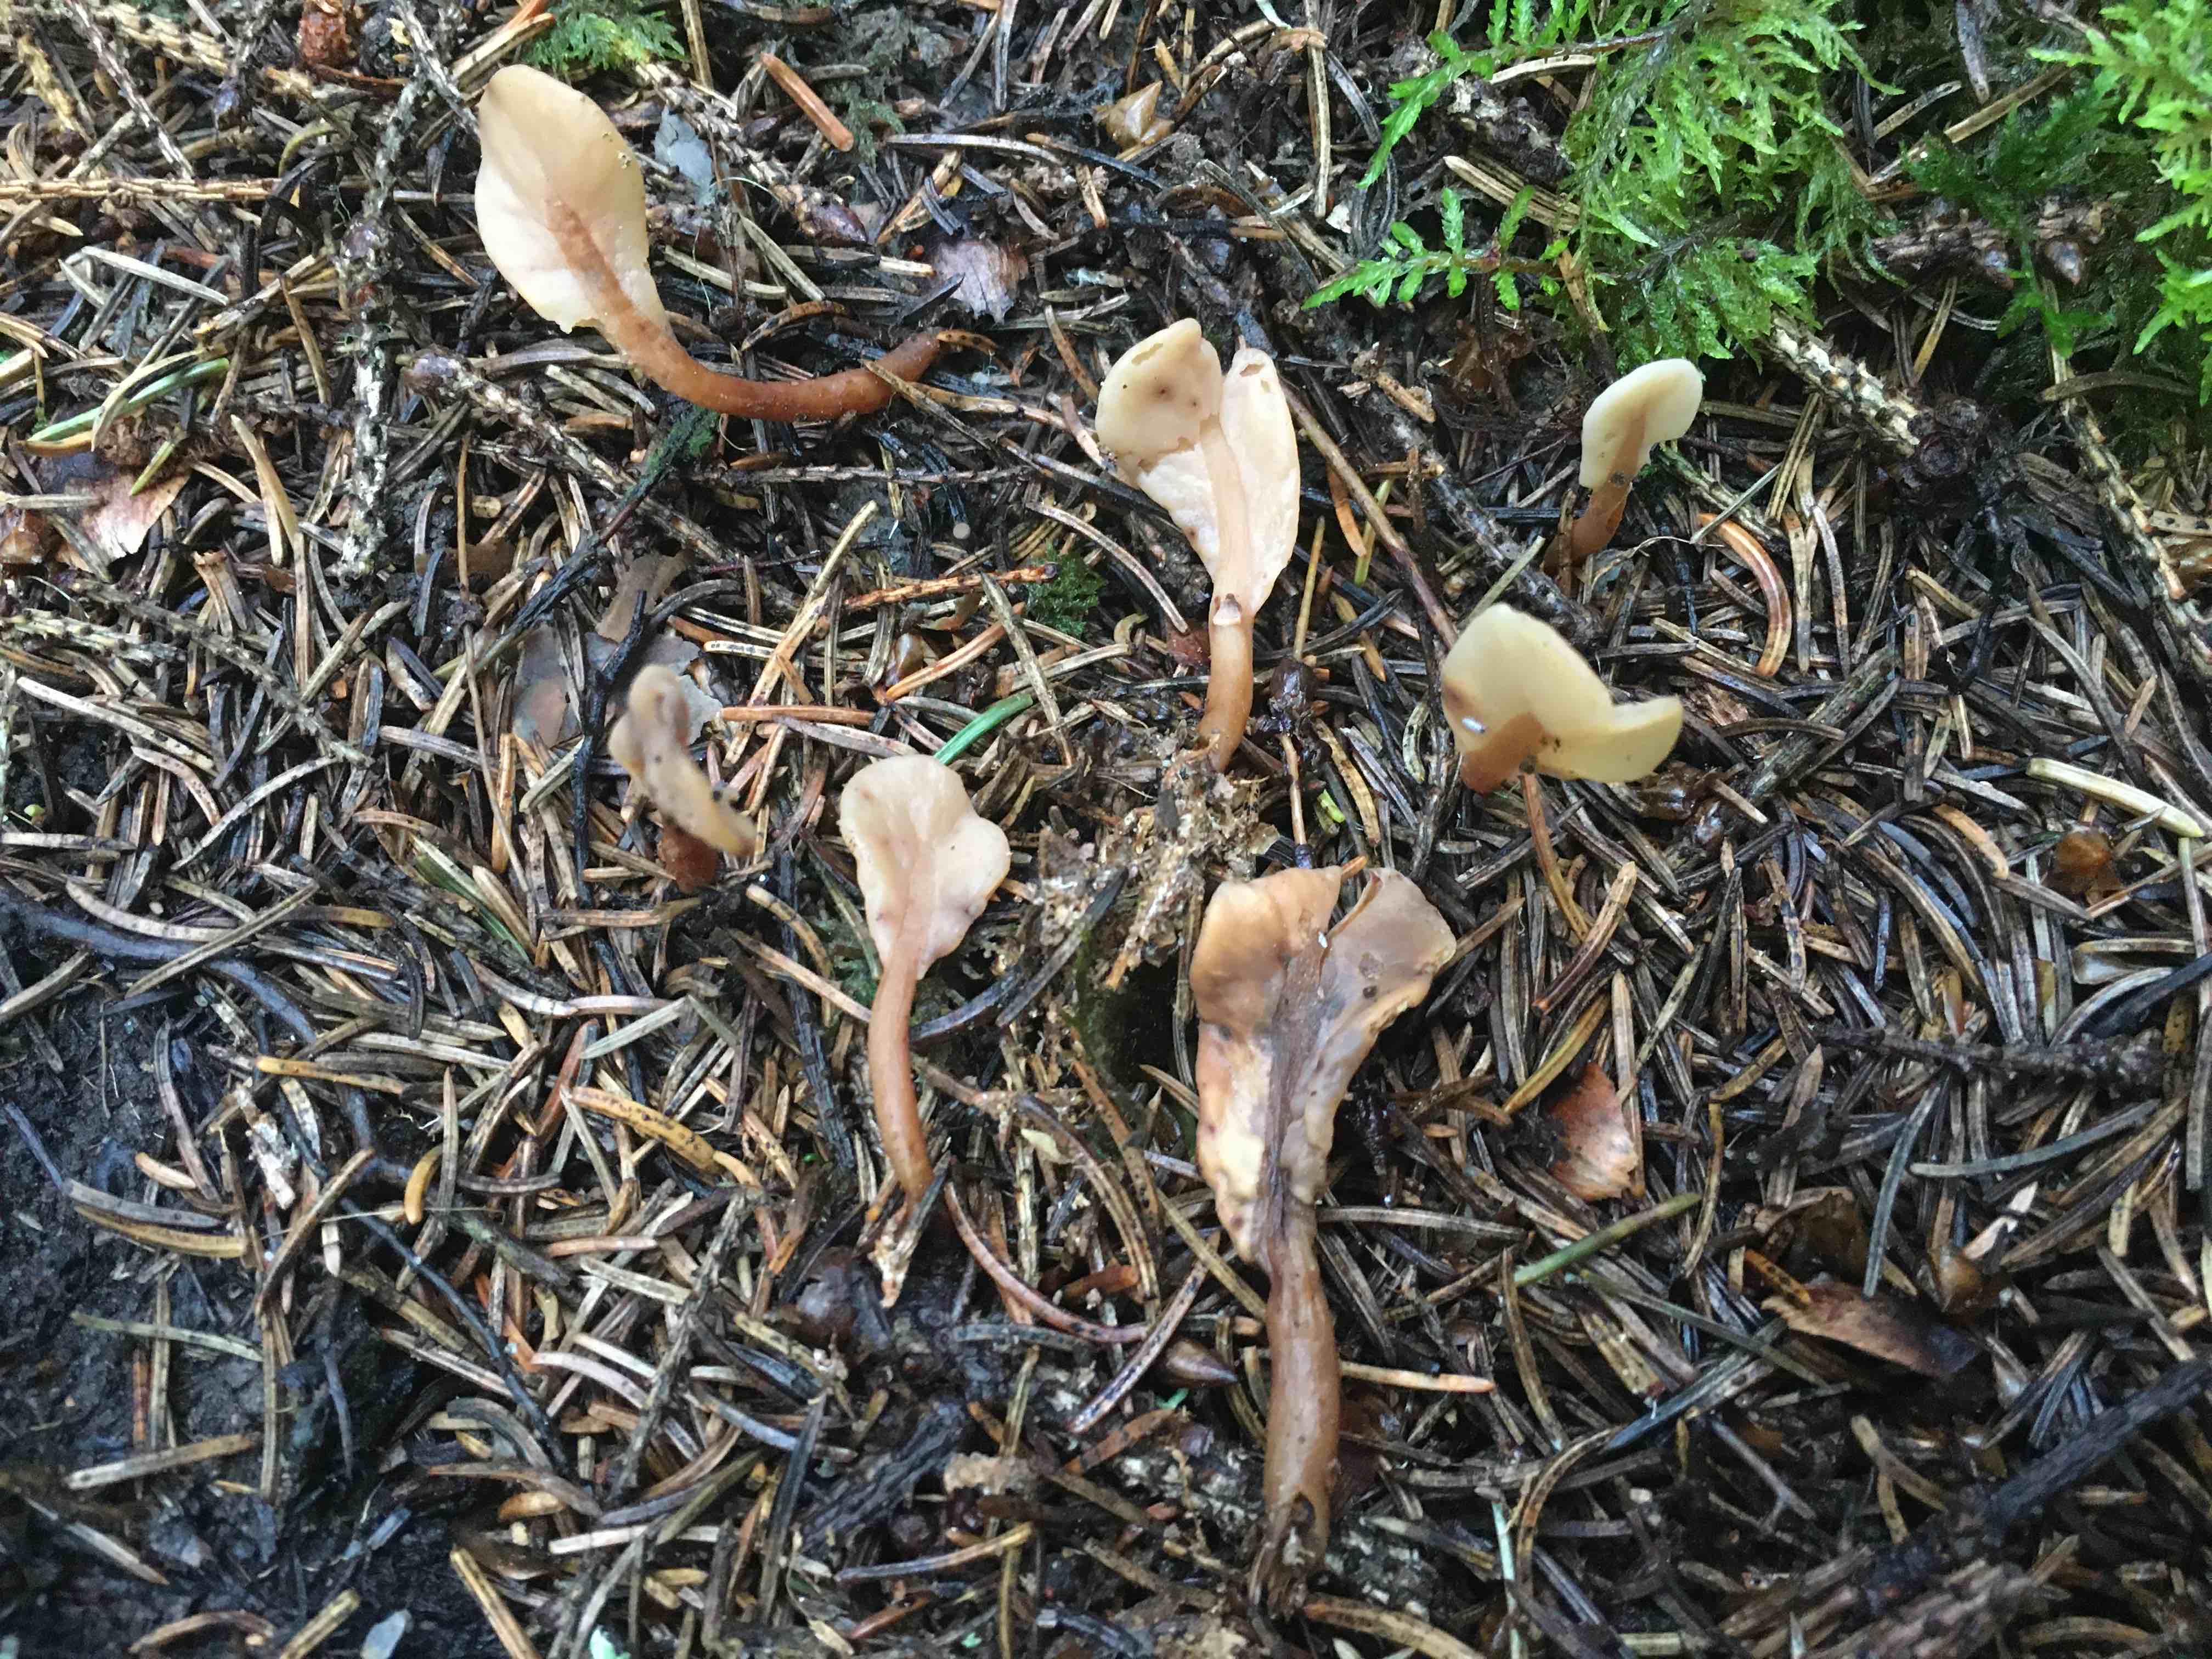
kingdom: Fungi
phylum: Ascomycota
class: Leotiomycetes
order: Rhytismatales
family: Cudoniaceae
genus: Spathularia
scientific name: Spathularia rufa
